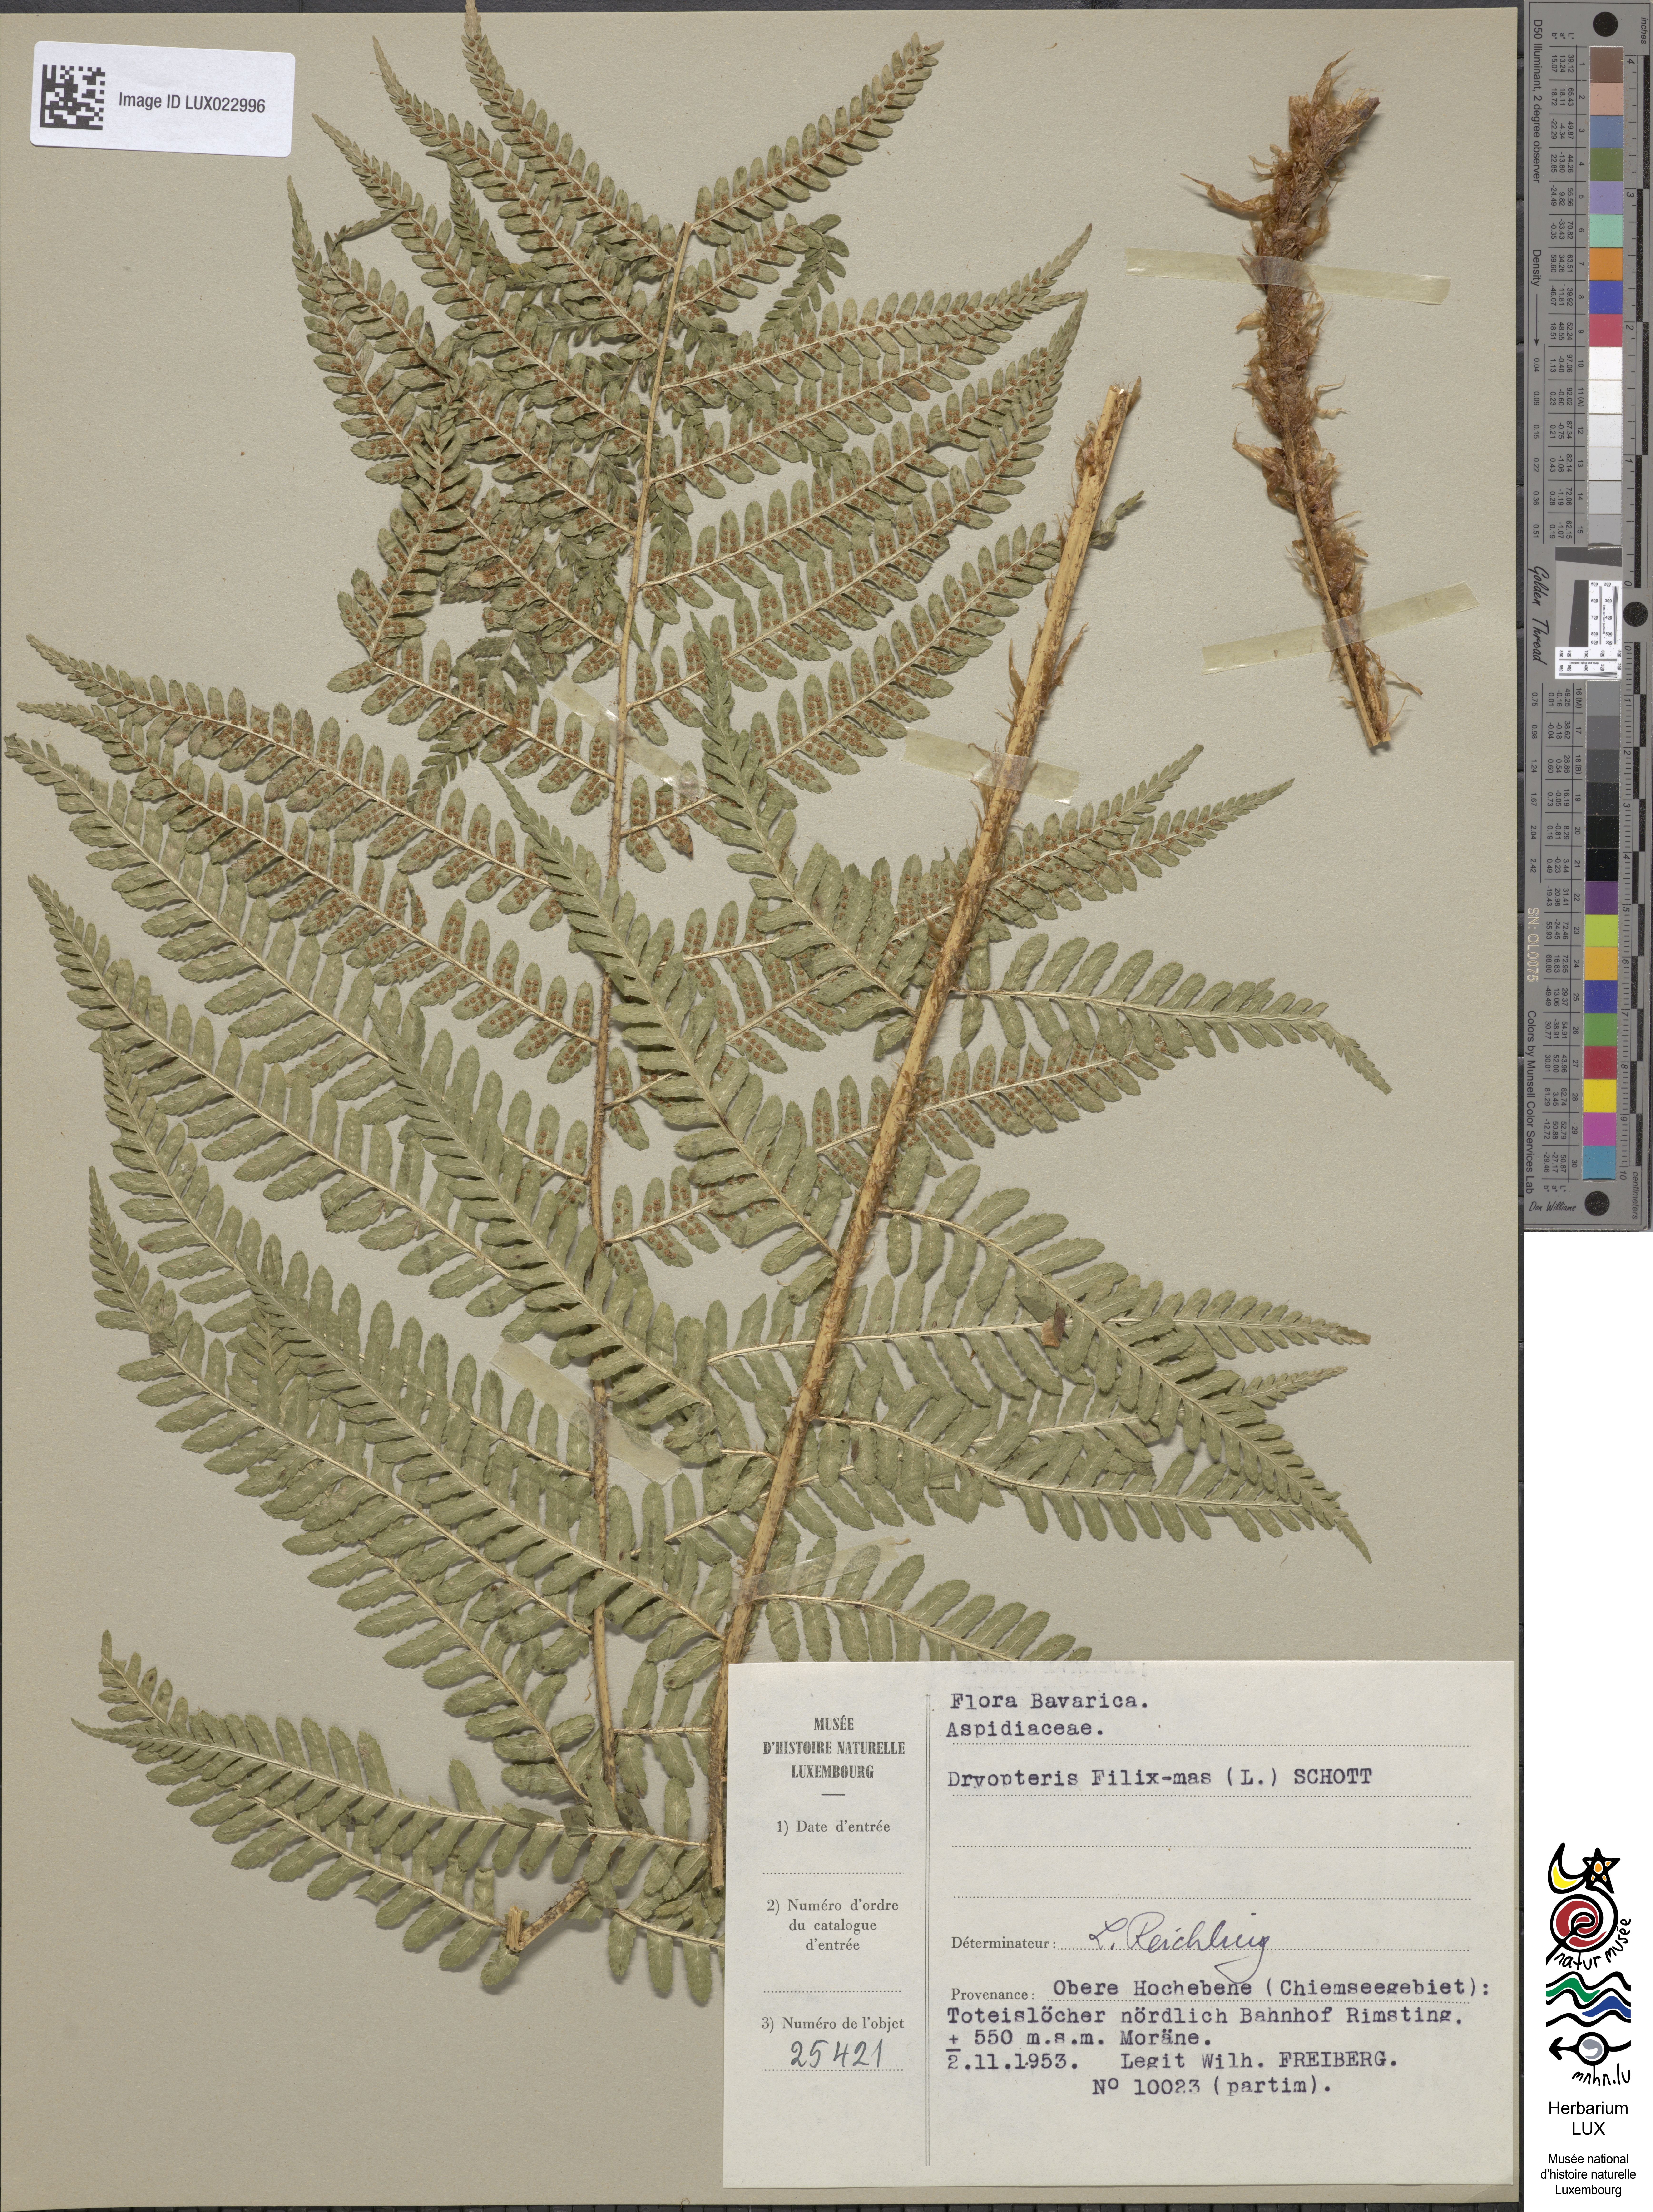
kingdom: Plantae
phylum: Tracheophyta
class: Polypodiopsida
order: Polypodiales
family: Dryopteridaceae
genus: Dryopteris
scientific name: Dryopteris filix-mas
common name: Male fern
